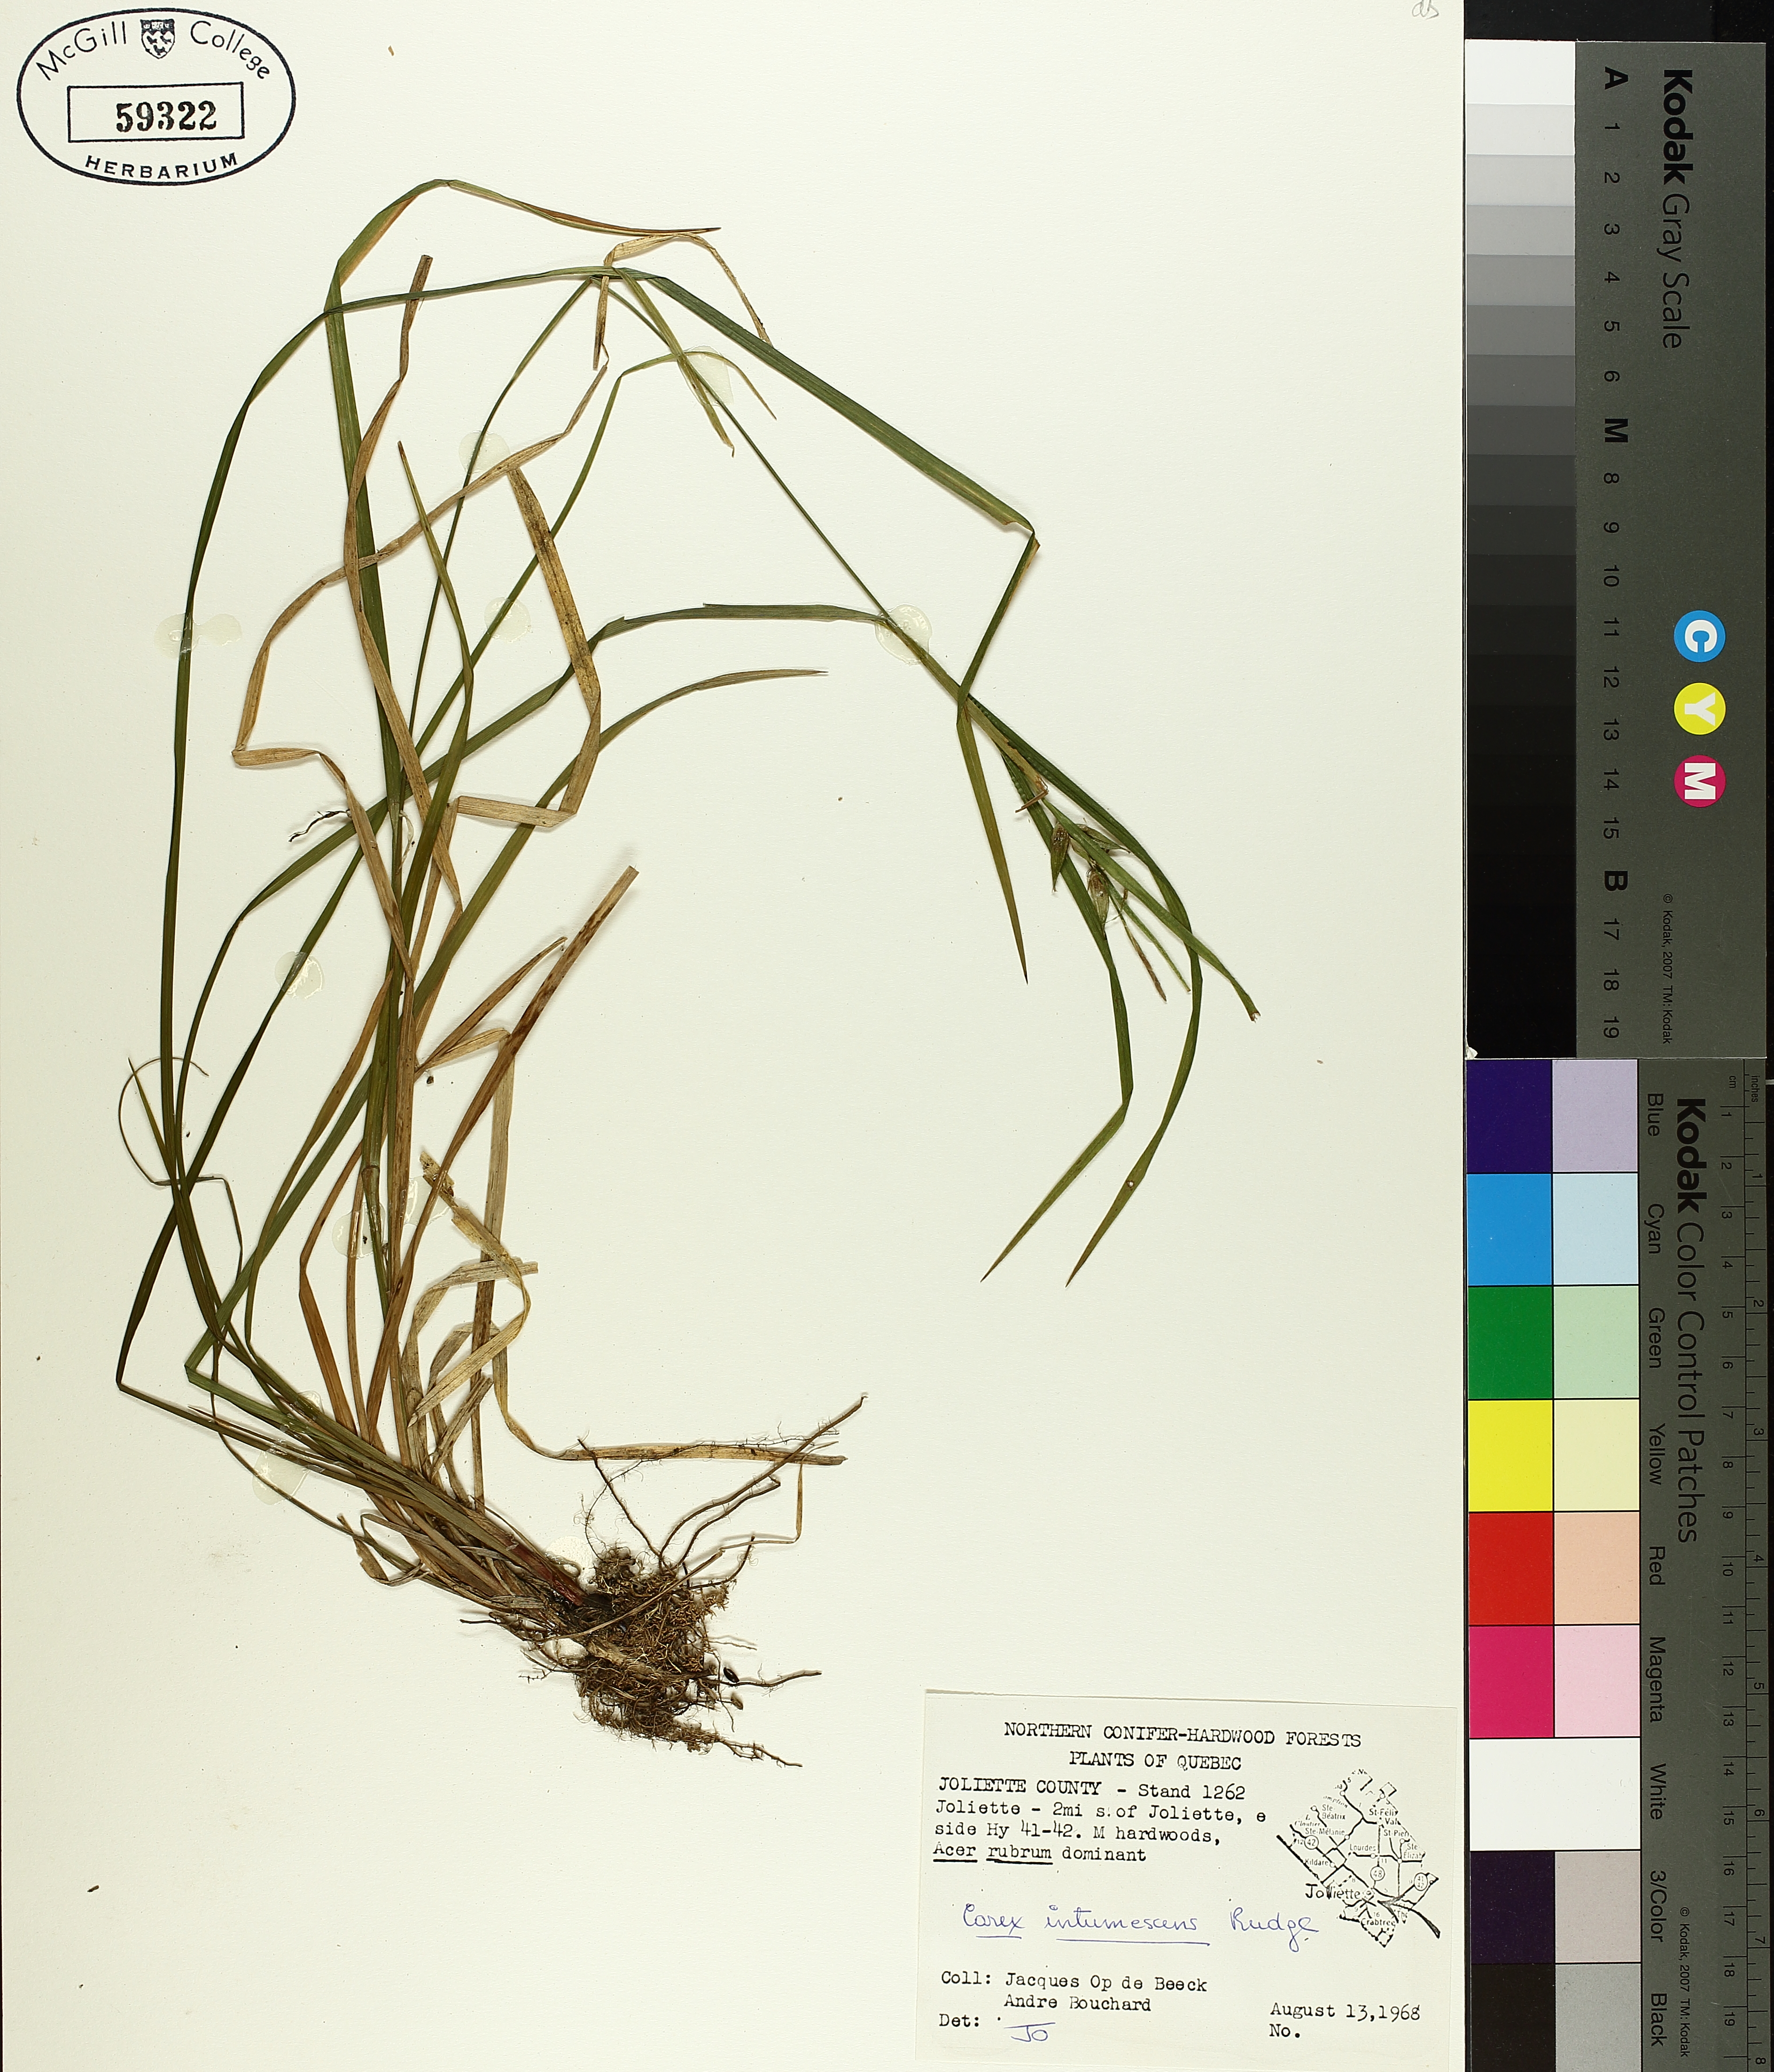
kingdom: Plantae
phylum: Tracheophyta
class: Liliopsida
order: Poales
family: Cyperaceae
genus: Carex
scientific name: Carex intumescens
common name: Greater bladder sedge
